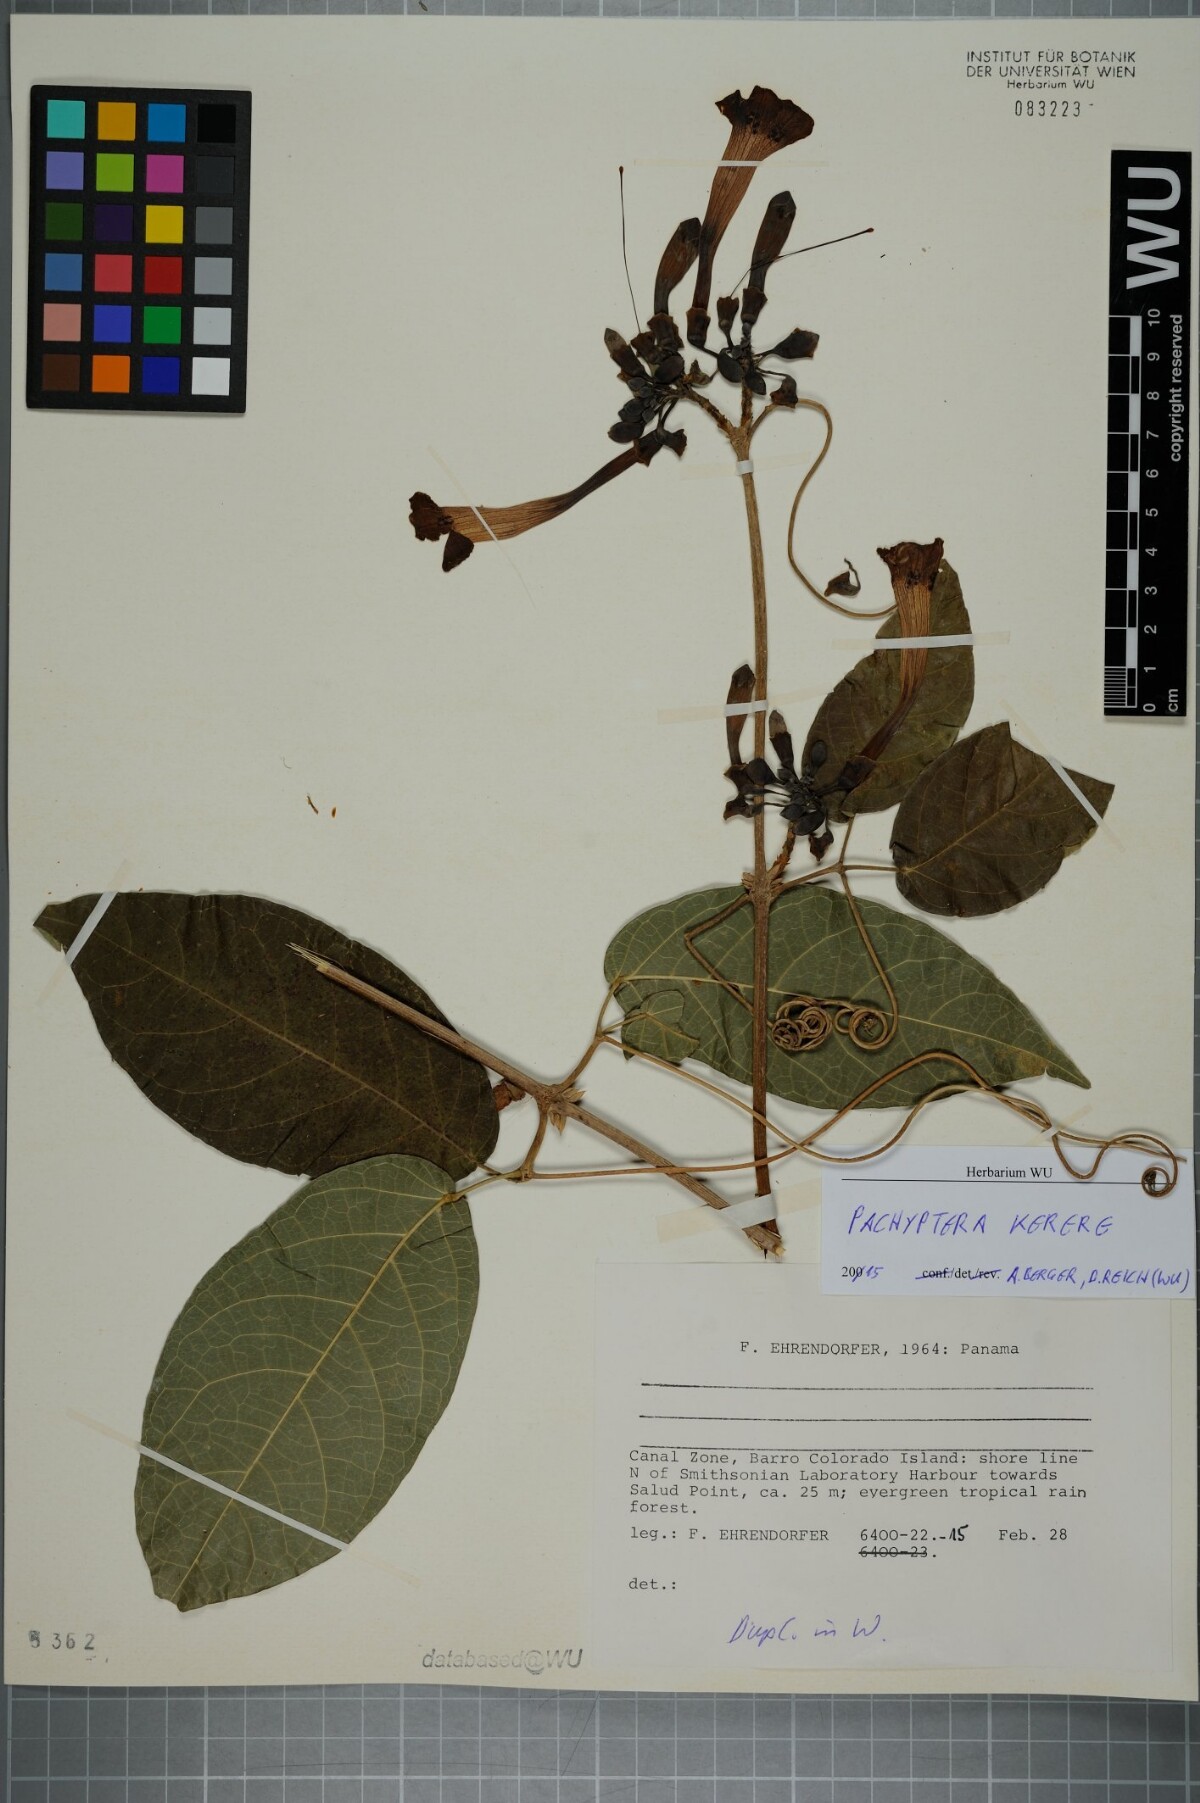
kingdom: Plantae
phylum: Tracheophyta
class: Magnoliopsida
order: Lamiales
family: Bignoniaceae
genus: Pachyptera
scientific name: Pachyptera kerere
